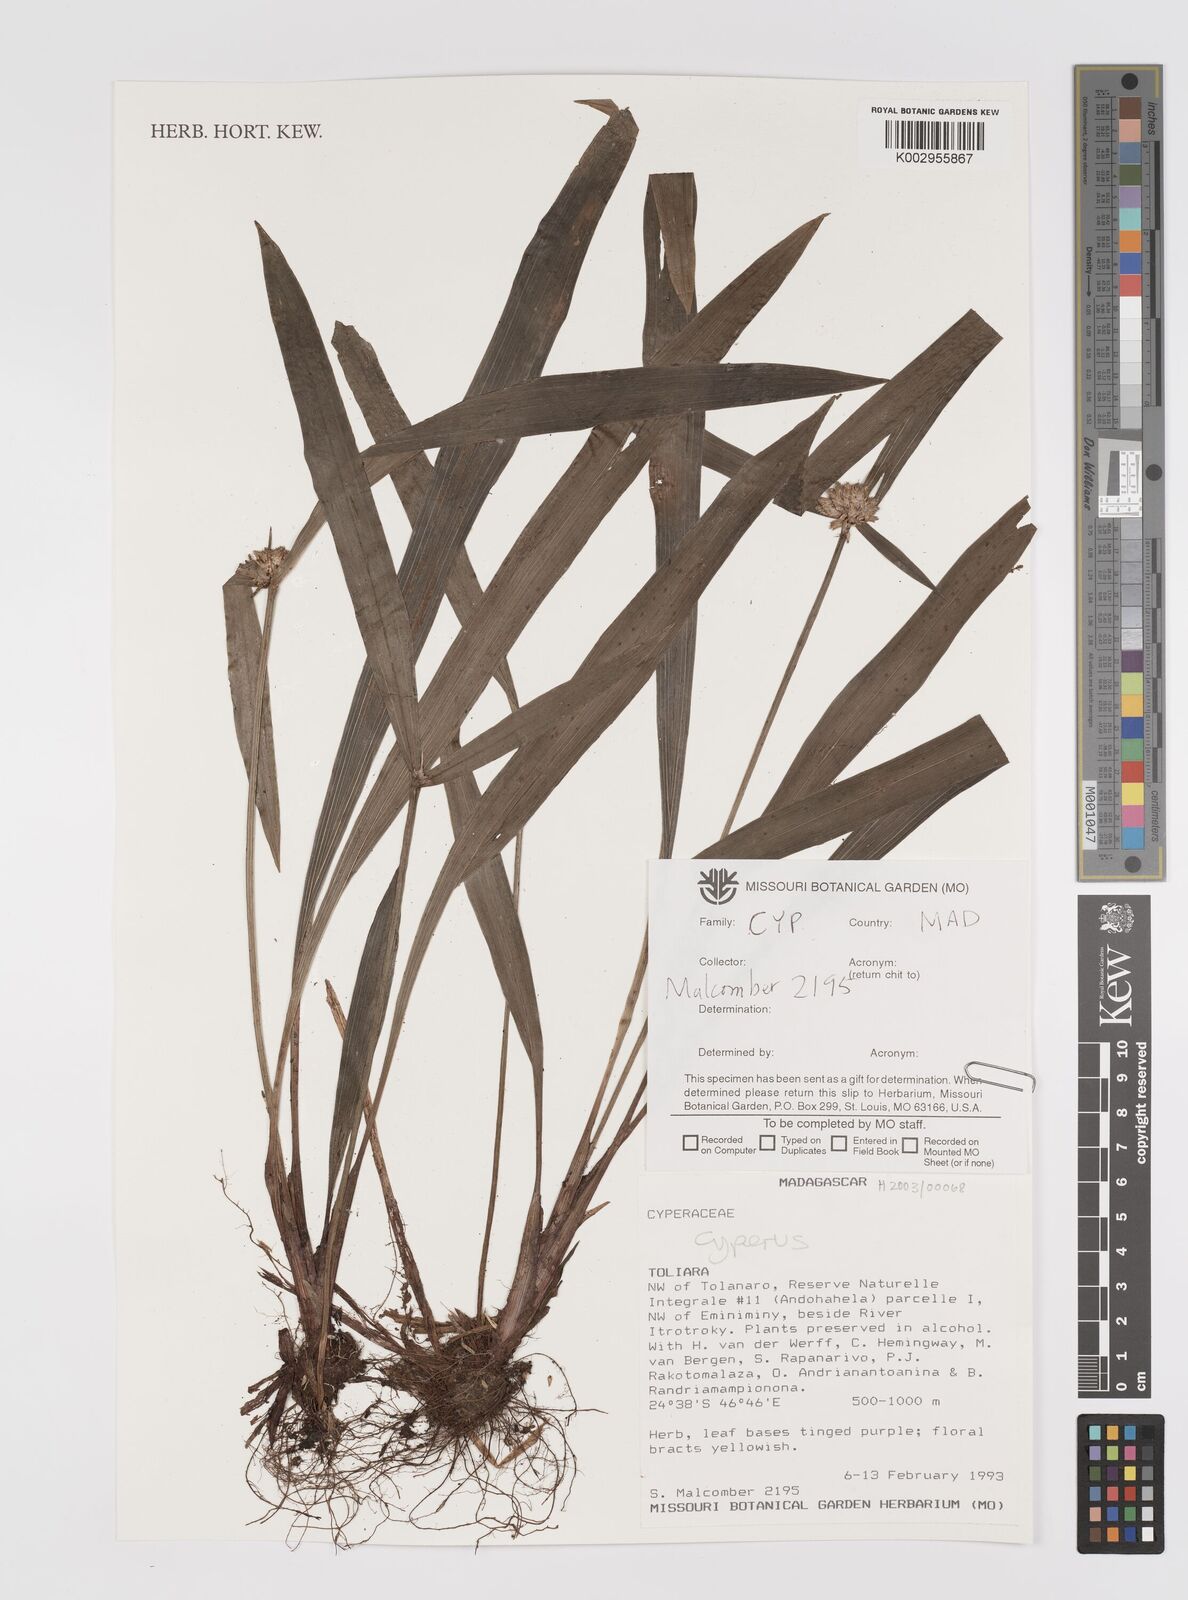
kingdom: Plantae
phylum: Tracheophyta
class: Liliopsida
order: Poales
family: Cyperaceae
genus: Cyperus
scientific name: Cyperus
